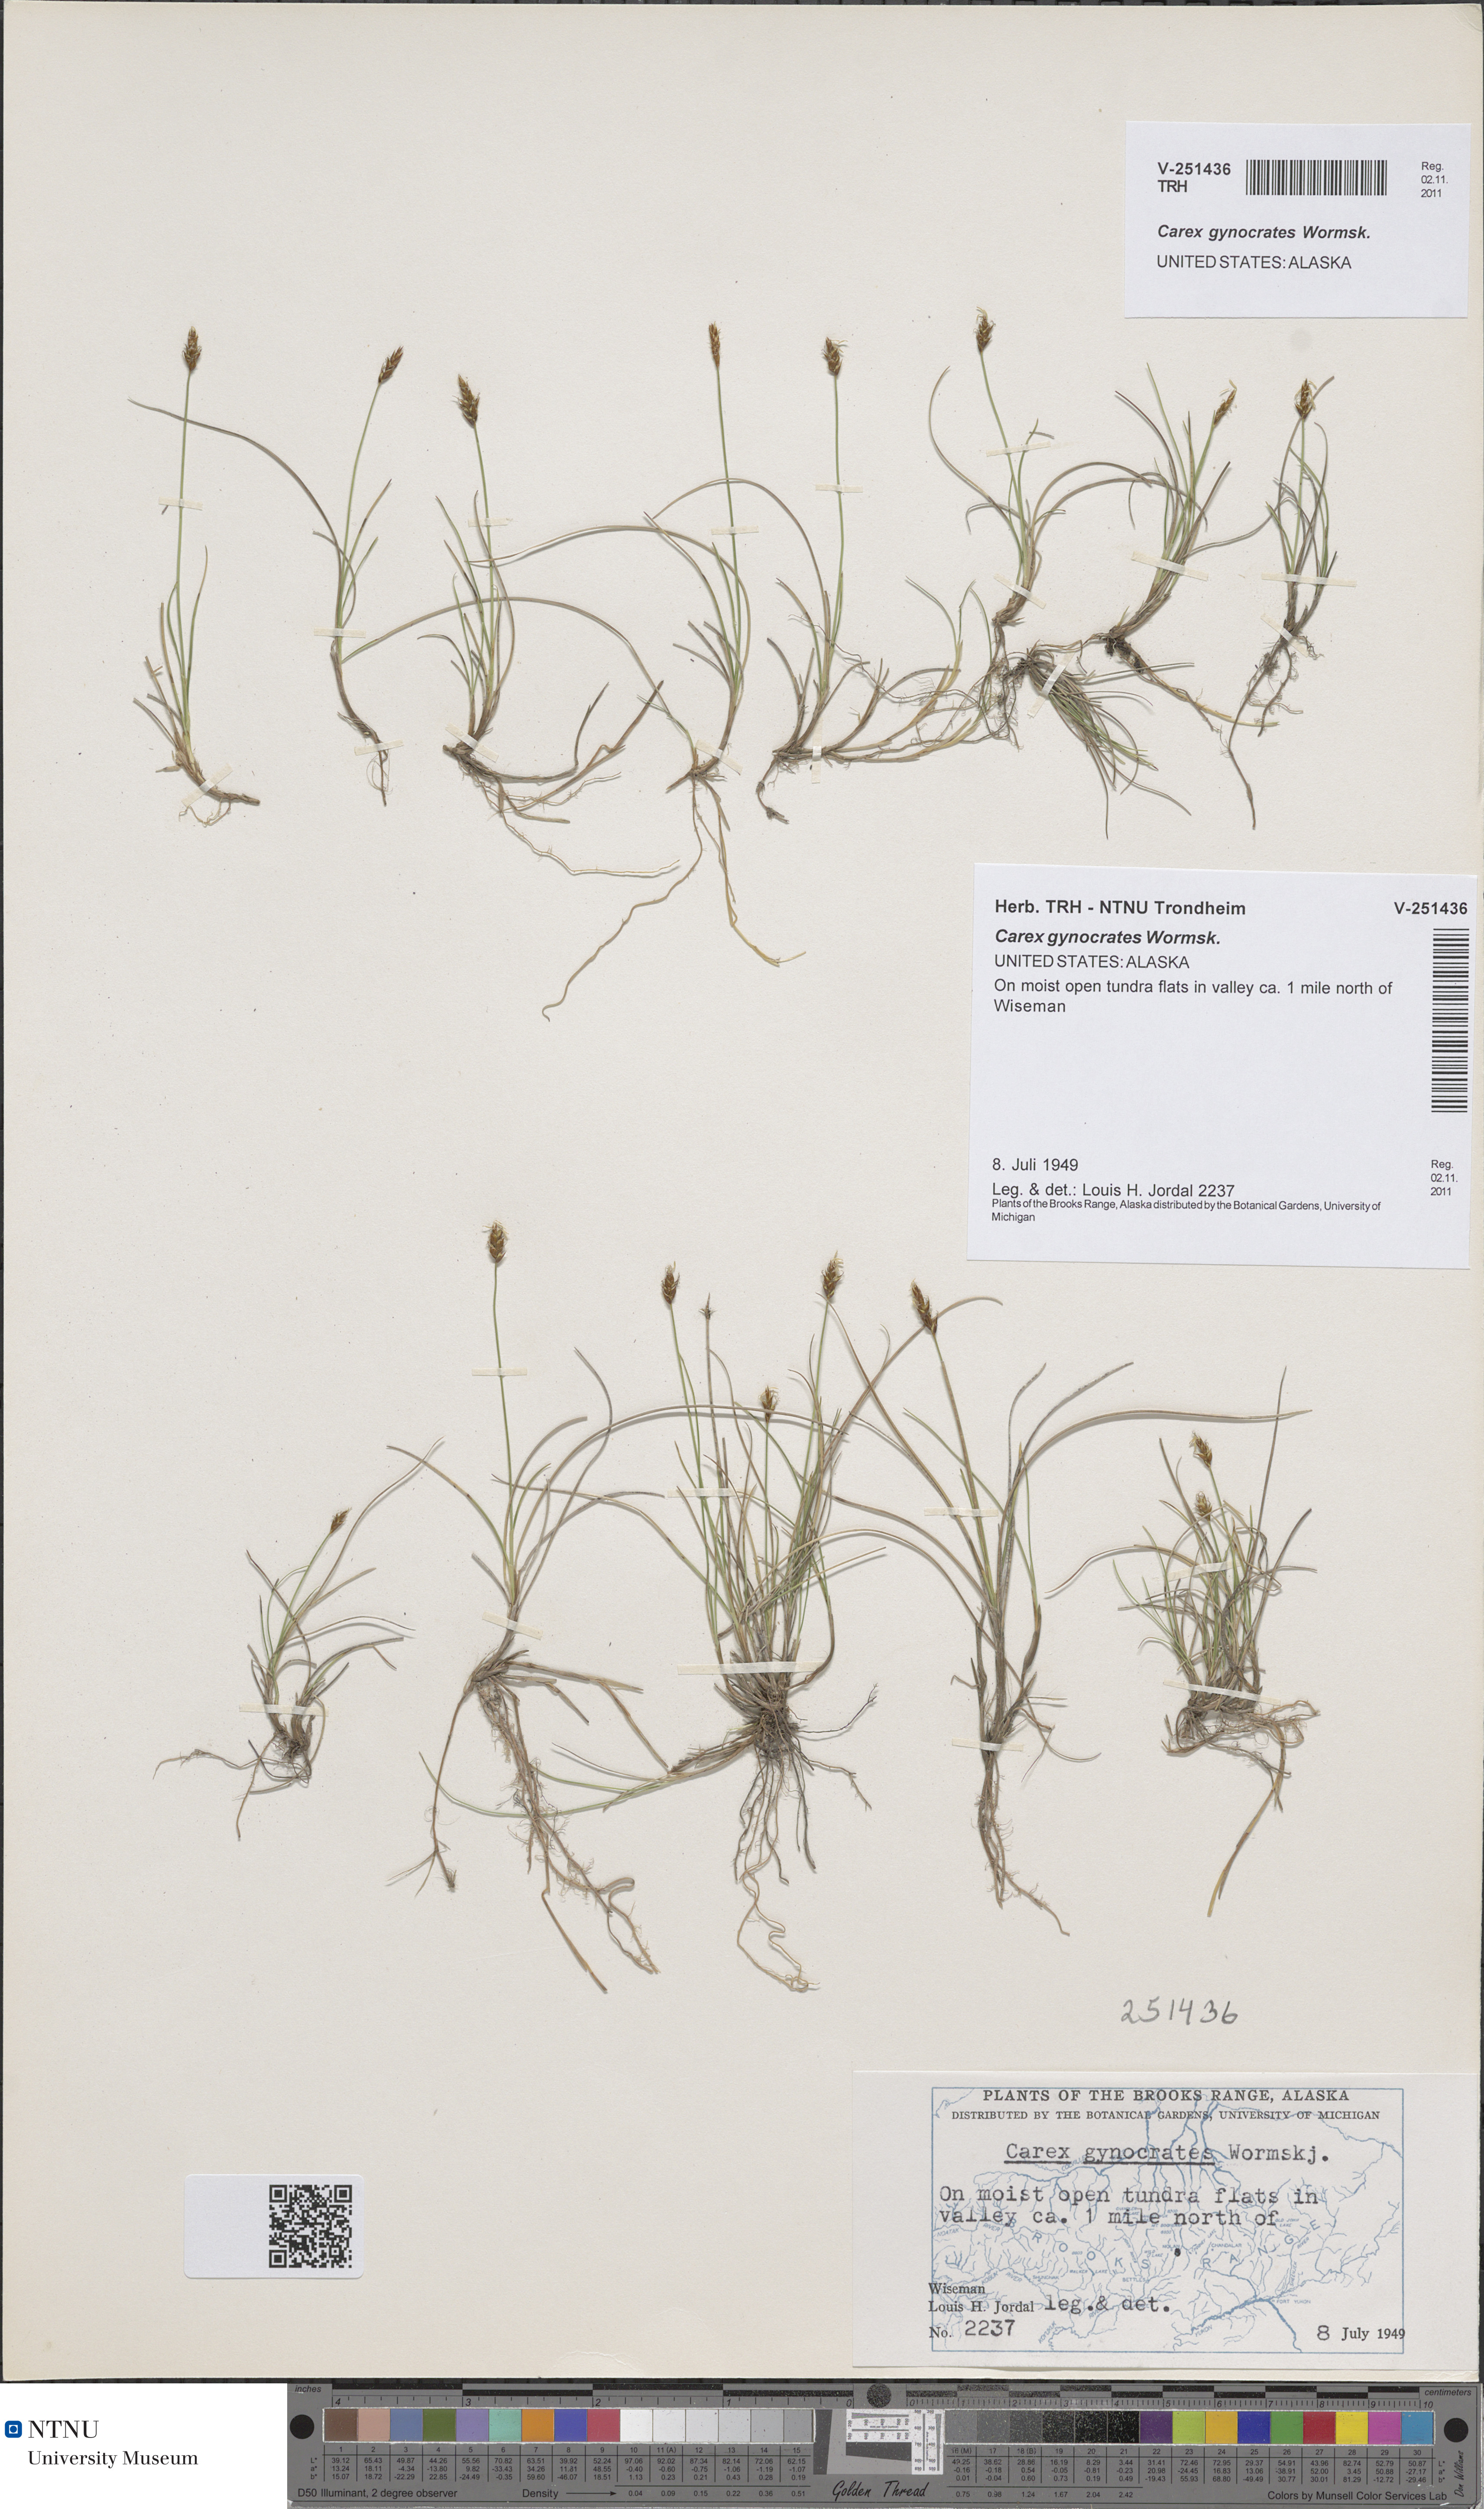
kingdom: Plantae
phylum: Tracheophyta
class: Liliopsida
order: Poales
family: Cyperaceae
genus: Carex
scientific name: Carex gynocrates
